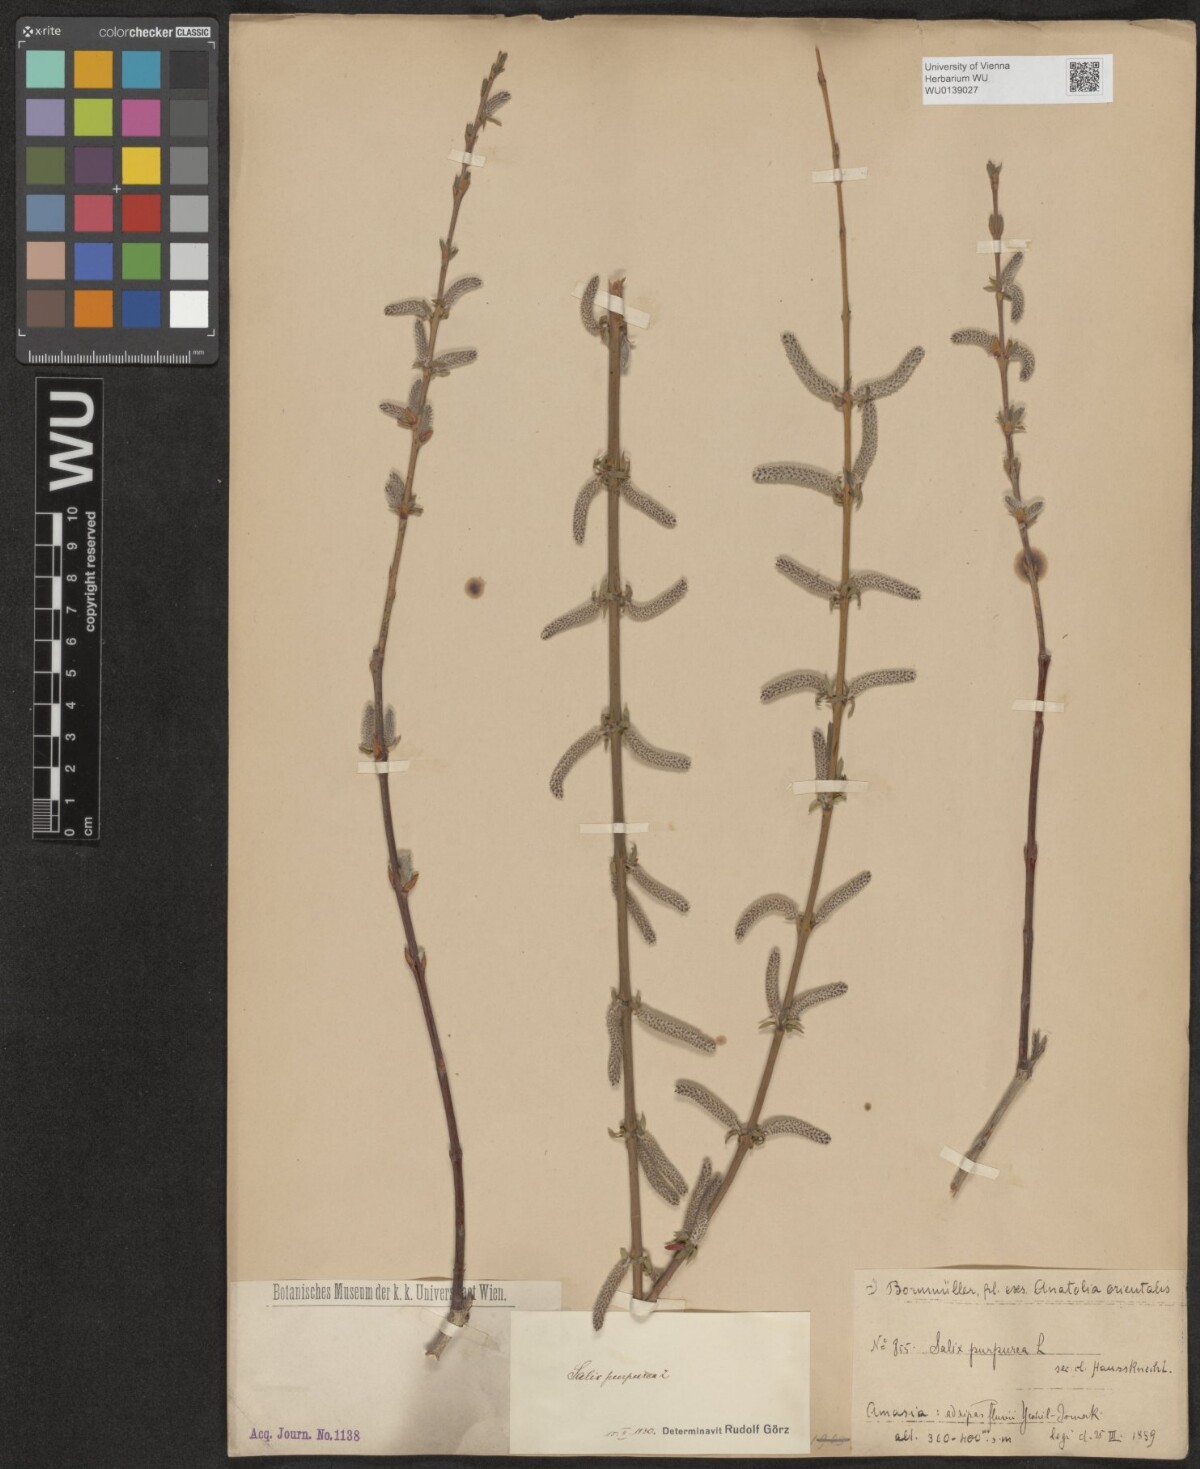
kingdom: Plantae
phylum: Tracheophyta
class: Magnoliopsida
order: Malpighiales
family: Salicaceae
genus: Salix
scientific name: Salix purpurea
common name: Purple willow
